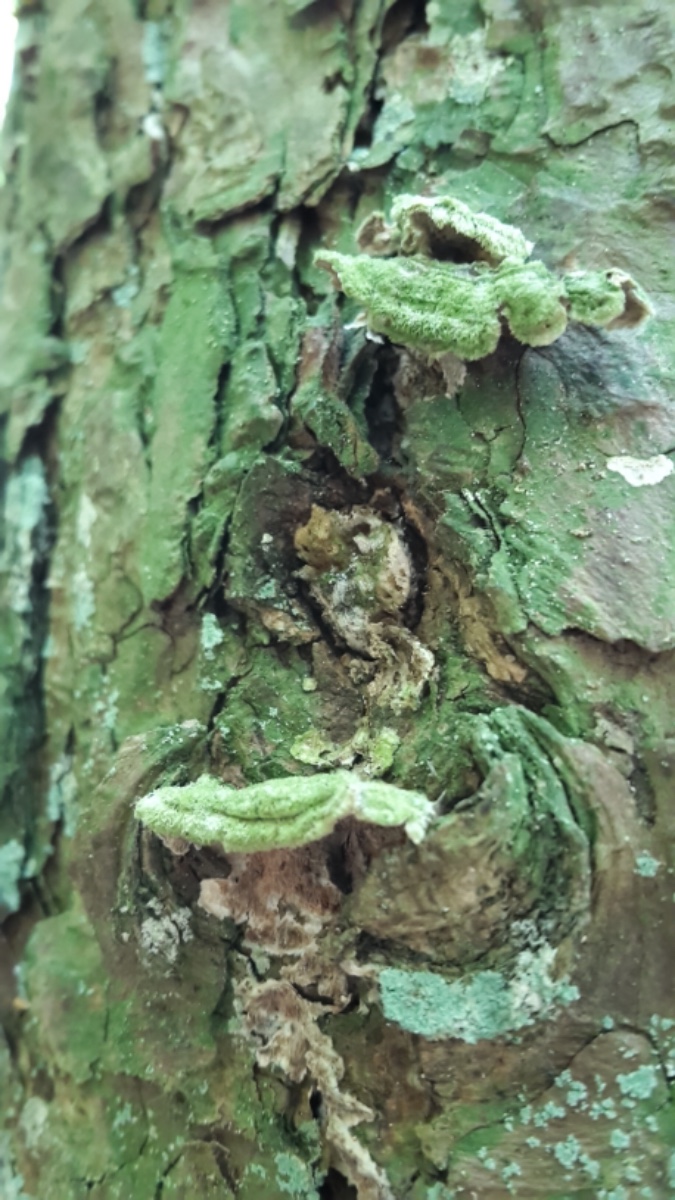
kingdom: Fungi
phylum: Basidiomycota
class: Agaricomycetes
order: Hymenochaetales
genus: Trichaptum
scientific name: Trichaptum abietinum
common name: almindelig violporesvamp
